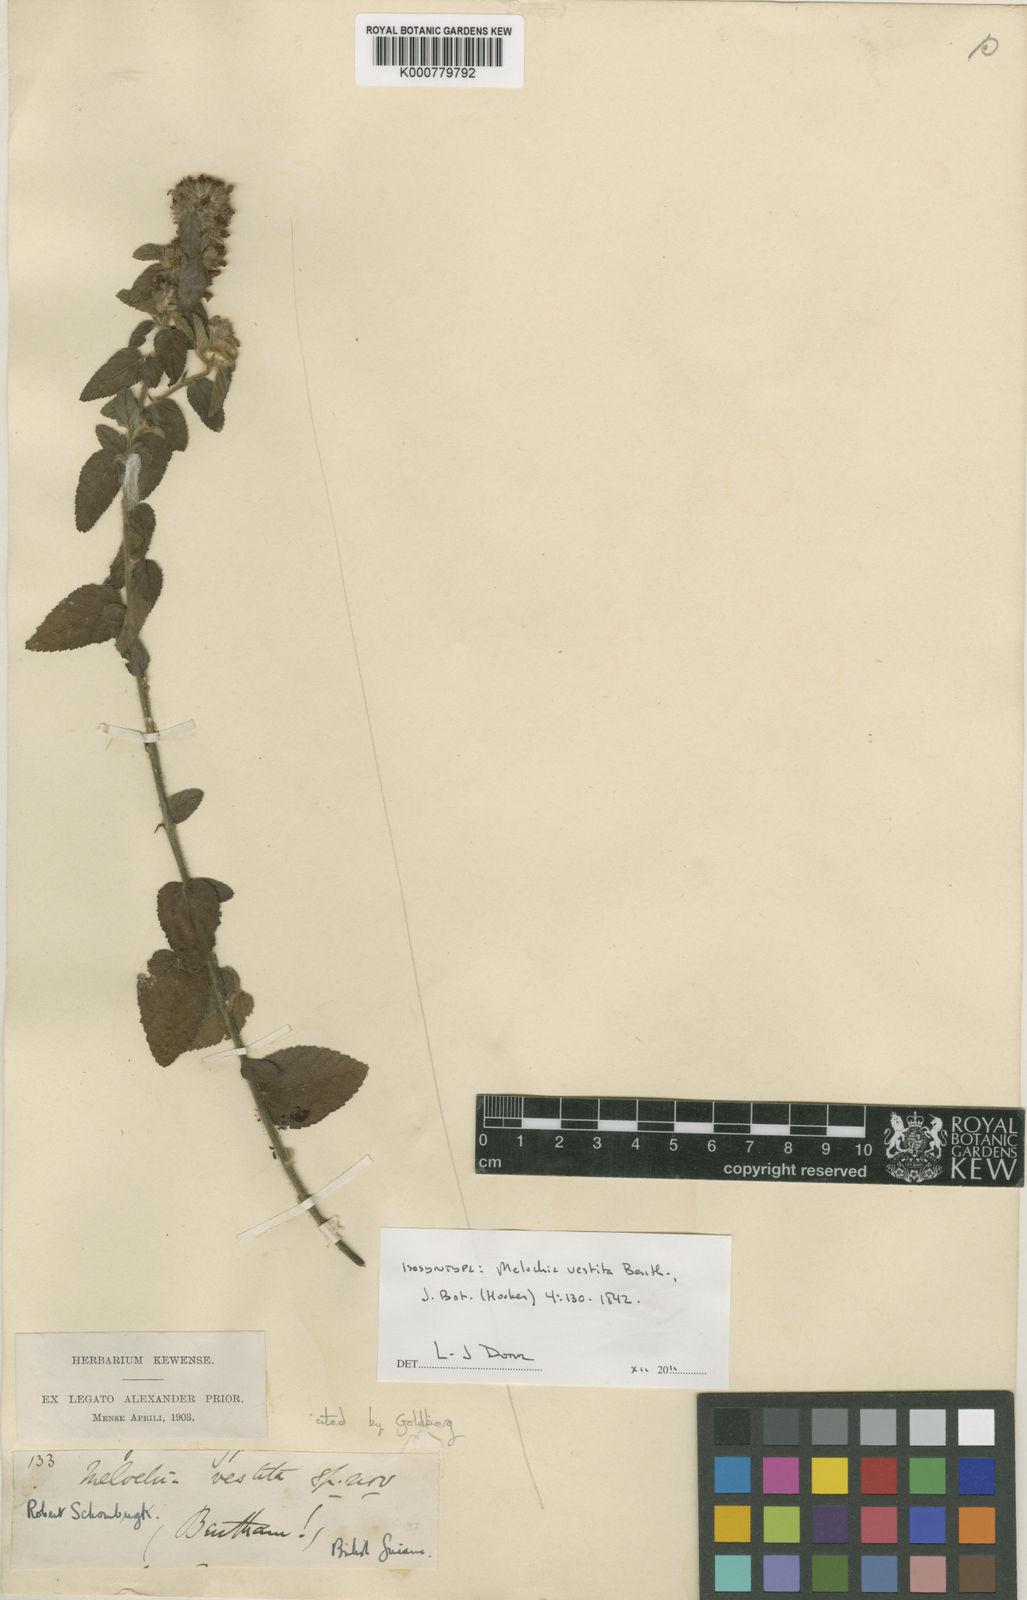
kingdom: Plantae
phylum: Tracheophyta
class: Magnoliopsida
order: Malvales
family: Malvaceae
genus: Melochia
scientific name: Melochia spicata
